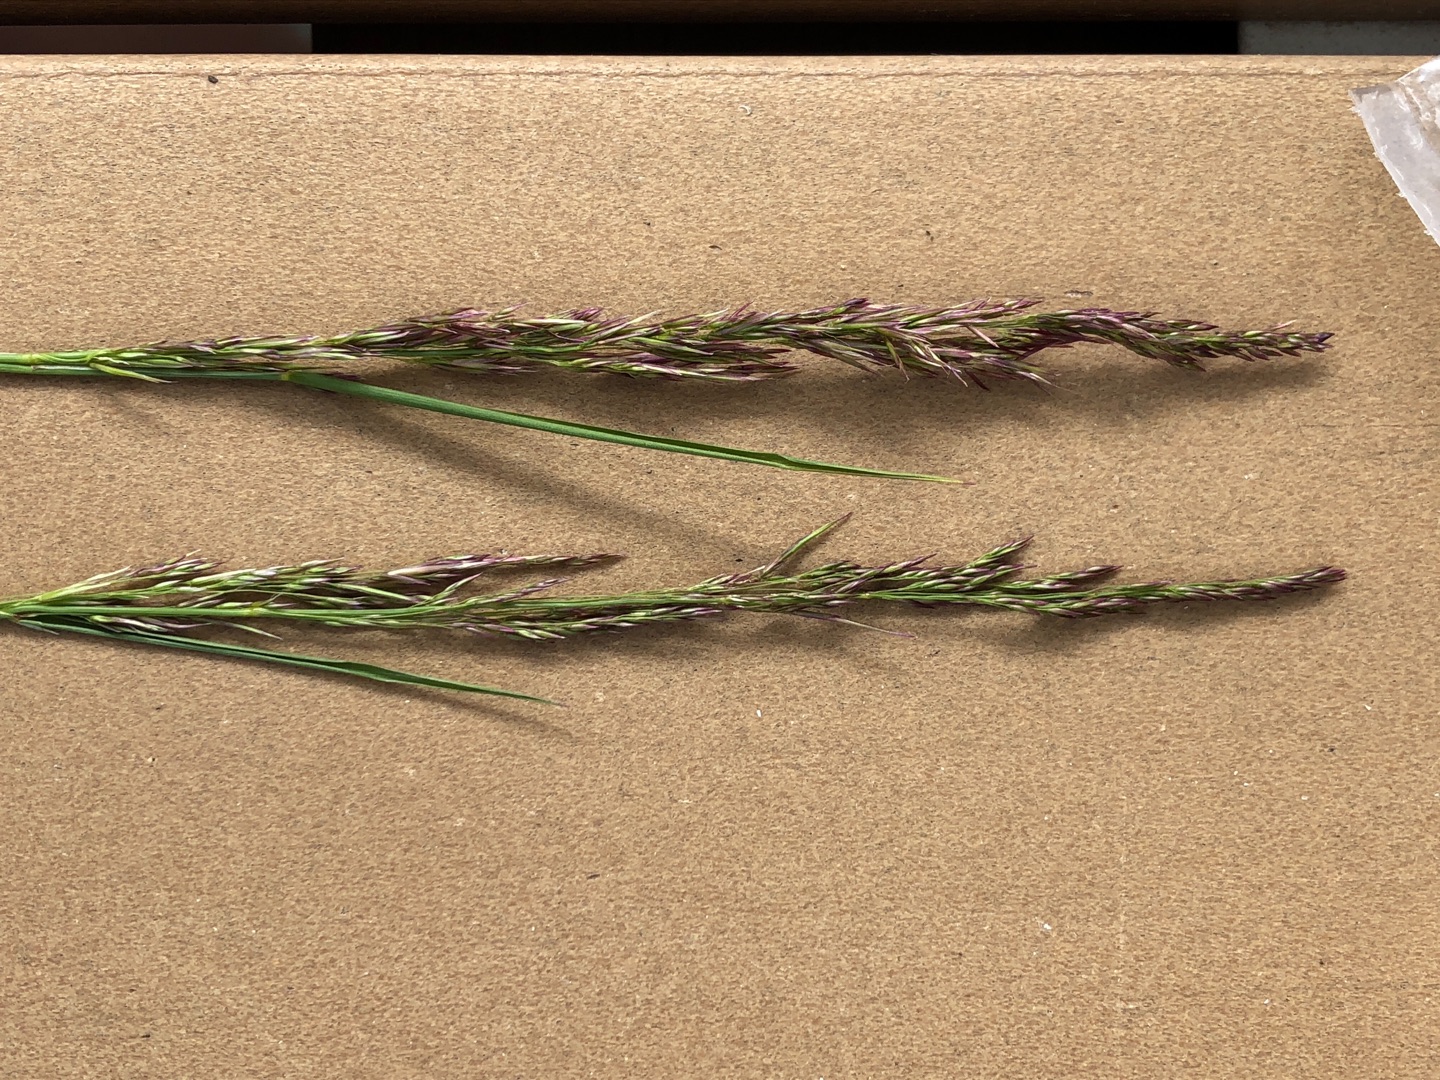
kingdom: Plantae
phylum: Tracheophyta
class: Liliopsida
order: Poales
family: Poaceae
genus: Agrostis
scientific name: Agrostis capillaris
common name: Almindelig hvene
